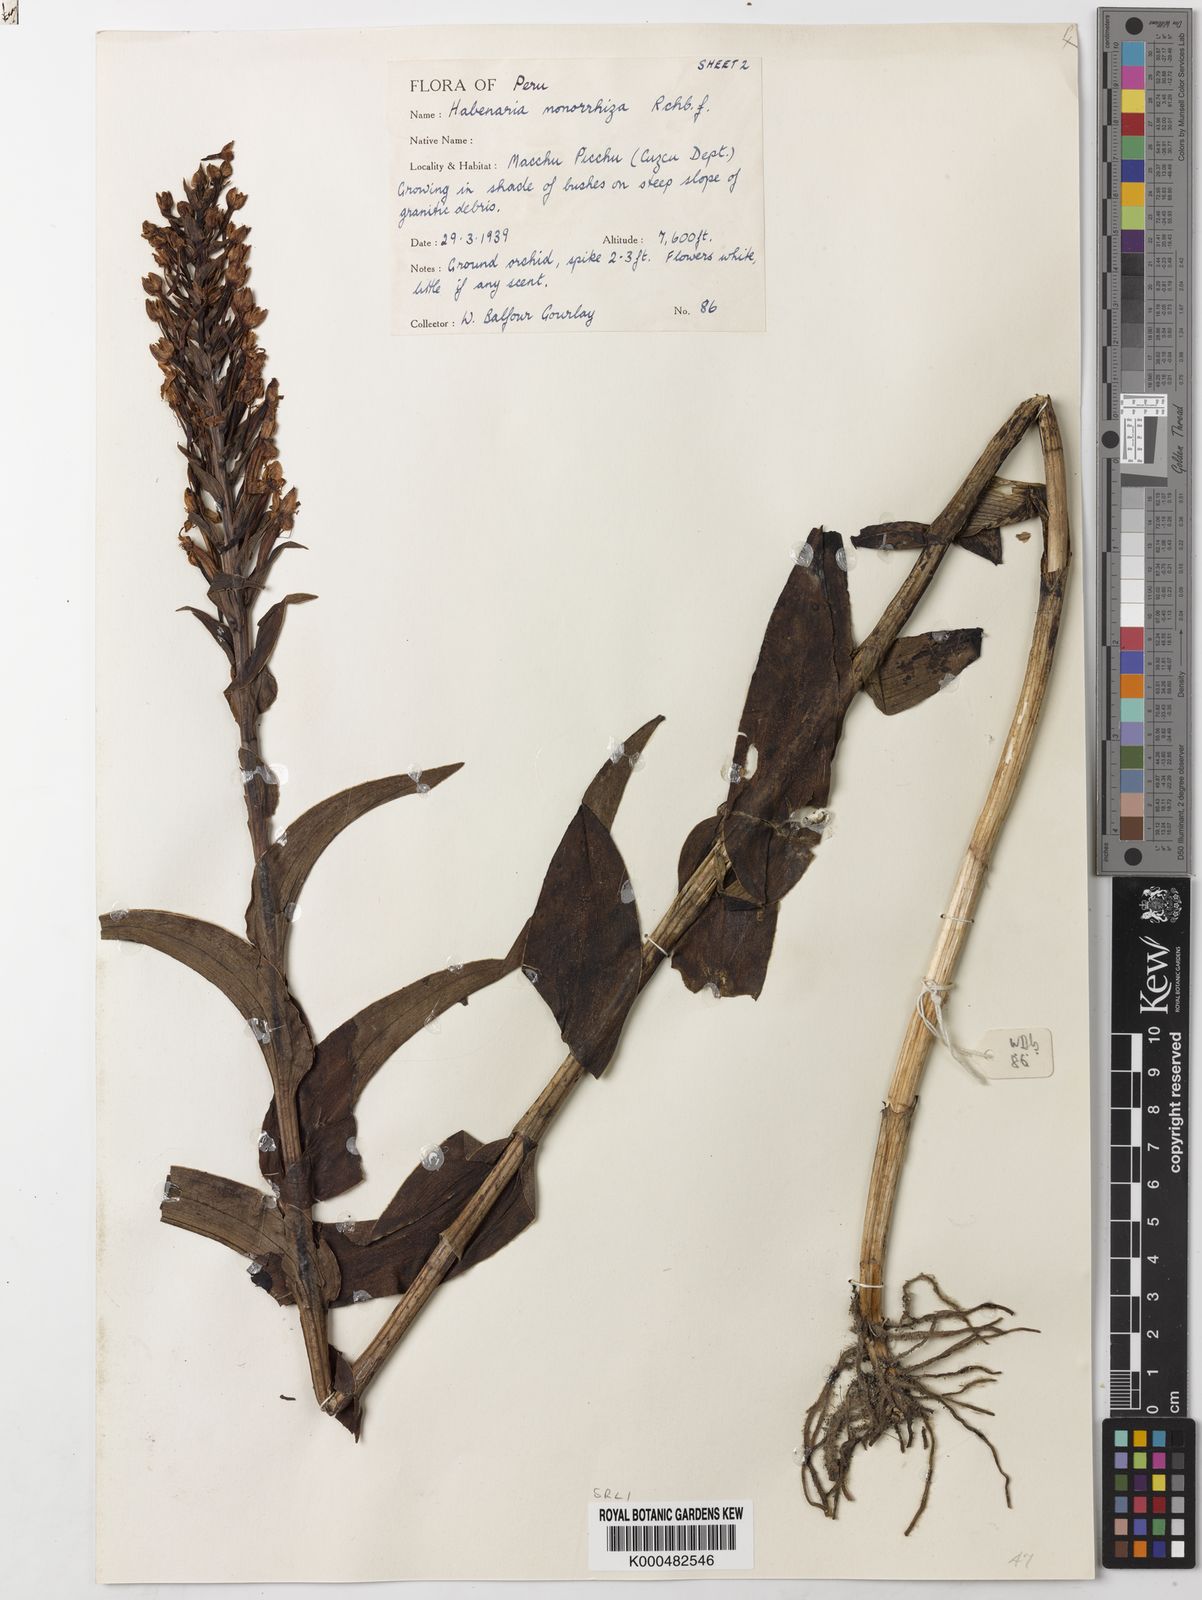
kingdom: Plantae
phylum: Tracheophyta
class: Liliopsida
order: Asparagales
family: Orchidaceae
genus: Habenaria
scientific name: Habenaria monorrhiza
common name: Tropical bog orchid
